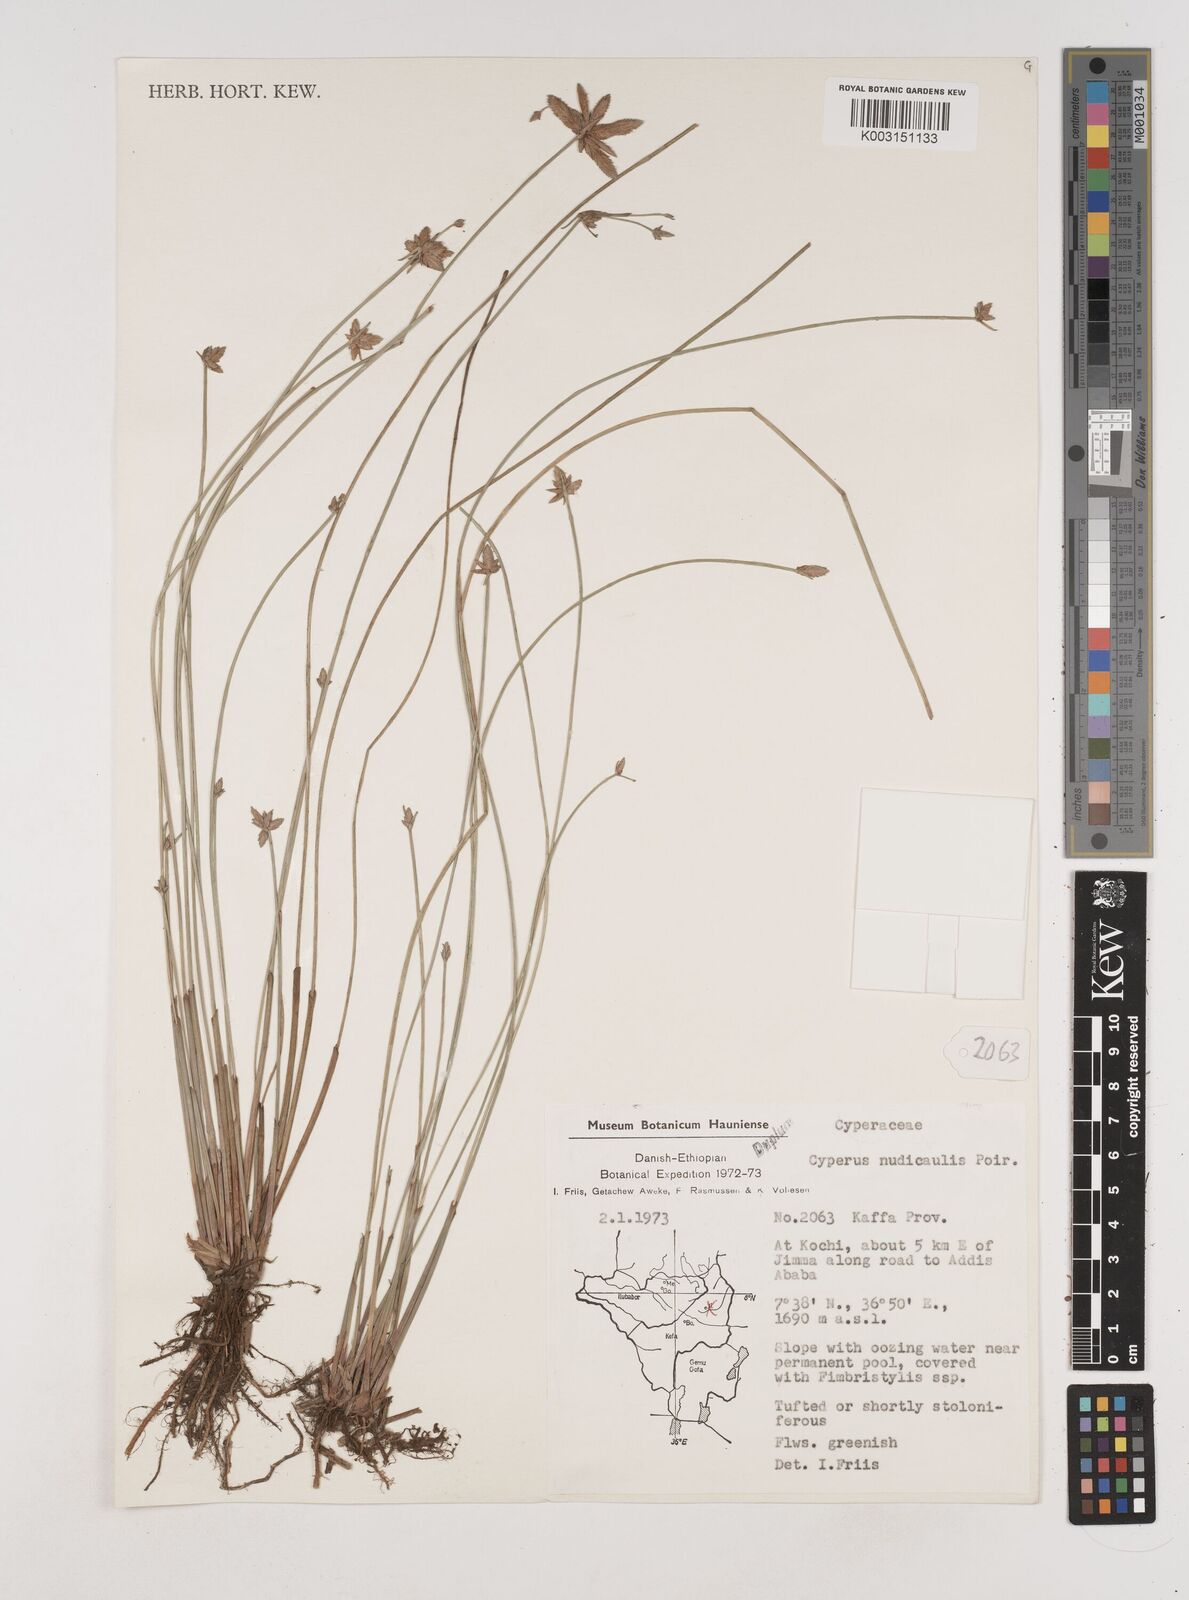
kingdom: Plantae
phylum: Tracheophyta
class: Liliopsida
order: Poales
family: Cyperaceae
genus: Cyperus
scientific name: Cyperus pectinatus
